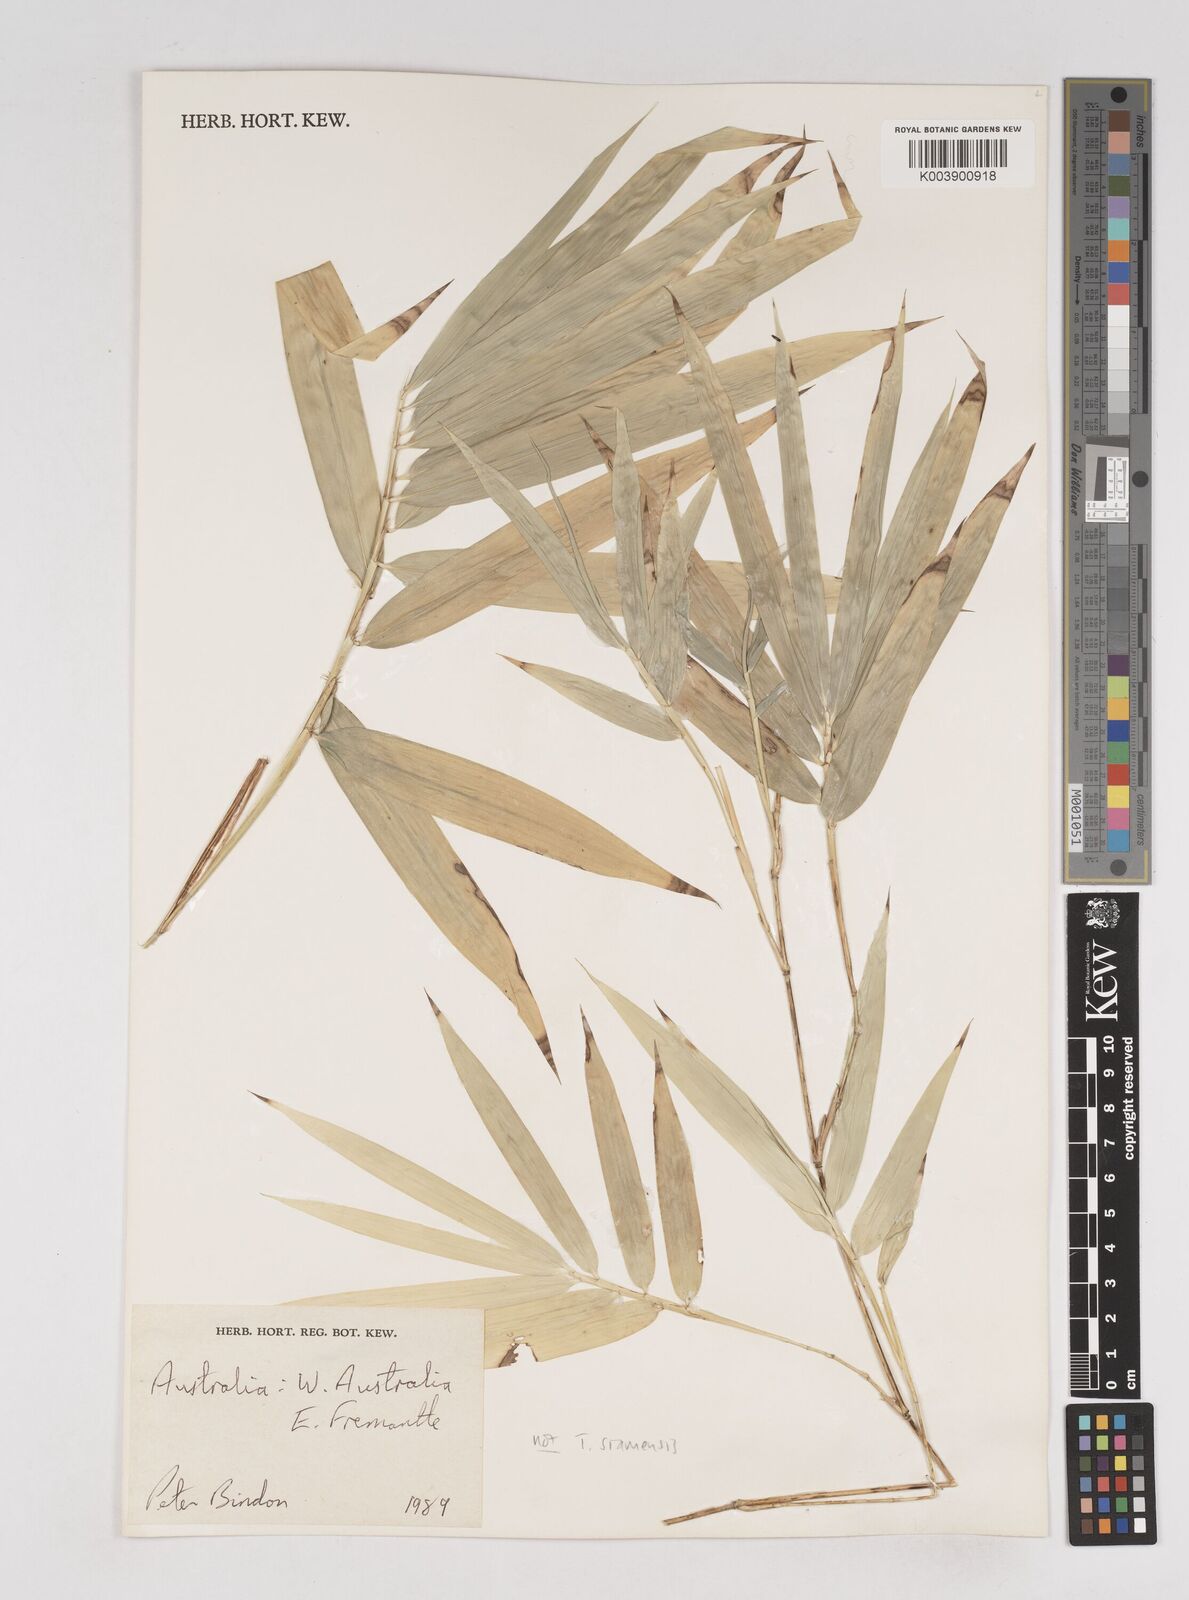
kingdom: Plantae
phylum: Tracheophyta
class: Liliopsida
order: Poales
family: Poaceae
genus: Thyrsostachys
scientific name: Thyrsostachys siamensis
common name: Thailand bamboo
